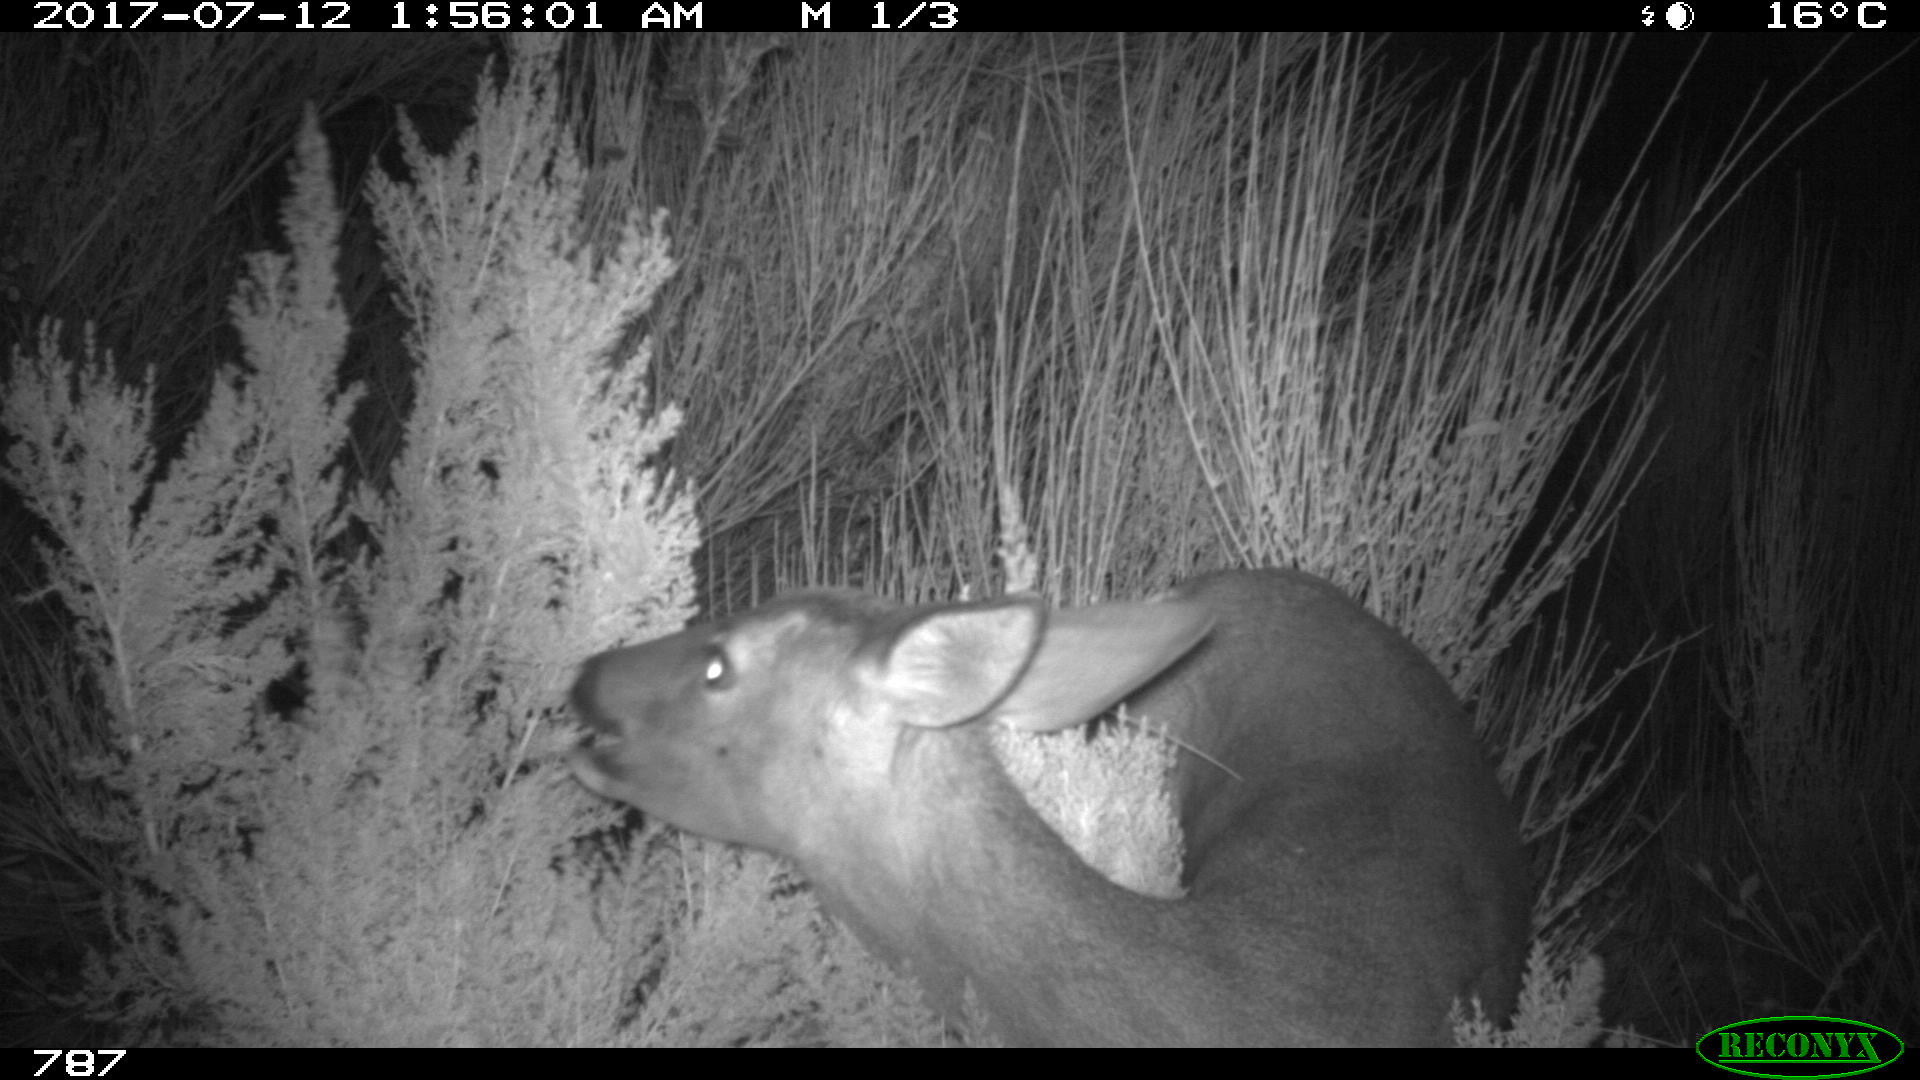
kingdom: Animalia
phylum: Chordata
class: Mammalia
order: Artiodactyla
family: Cervidae
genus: Capreolus
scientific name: Capreolus capreolus
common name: Western roe deer
